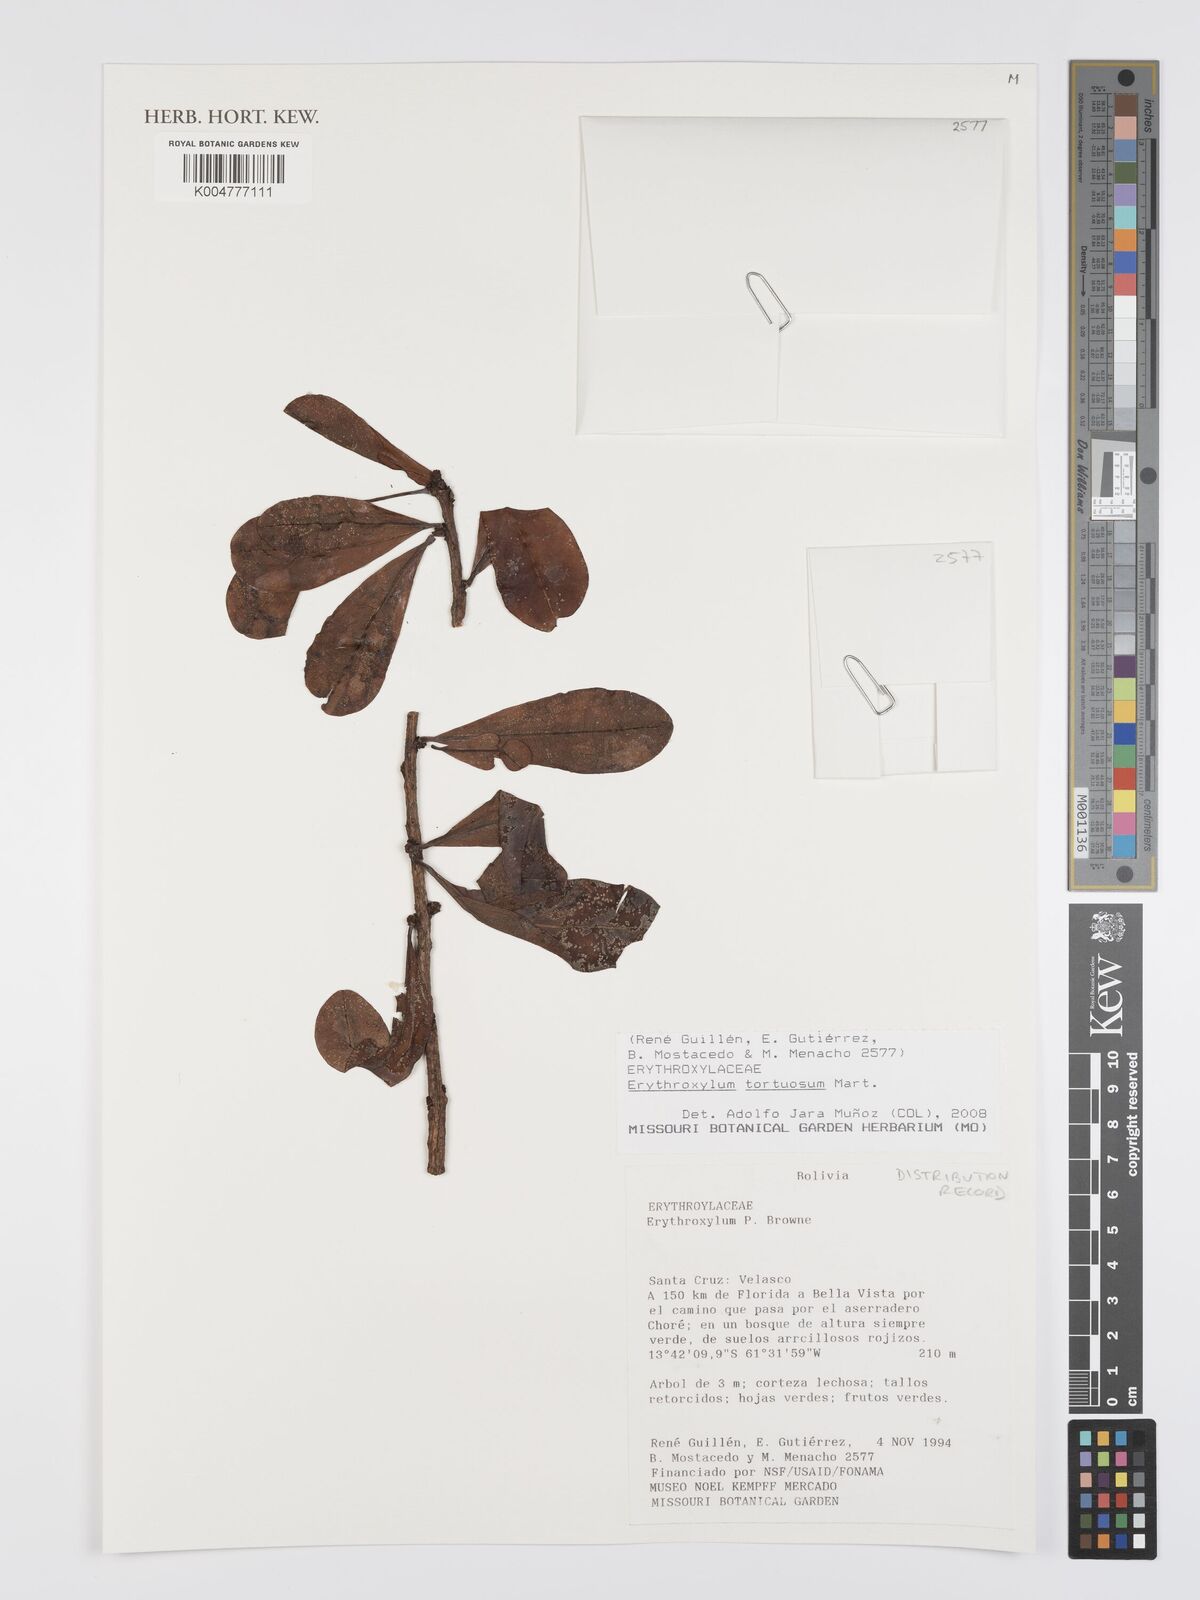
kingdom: Plantae
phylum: Tracheophyta
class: Magnoliopsida
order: Malpighiales
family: Erythroxylaceae
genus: Erythroxylum
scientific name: Erythroxylum tortuosum
